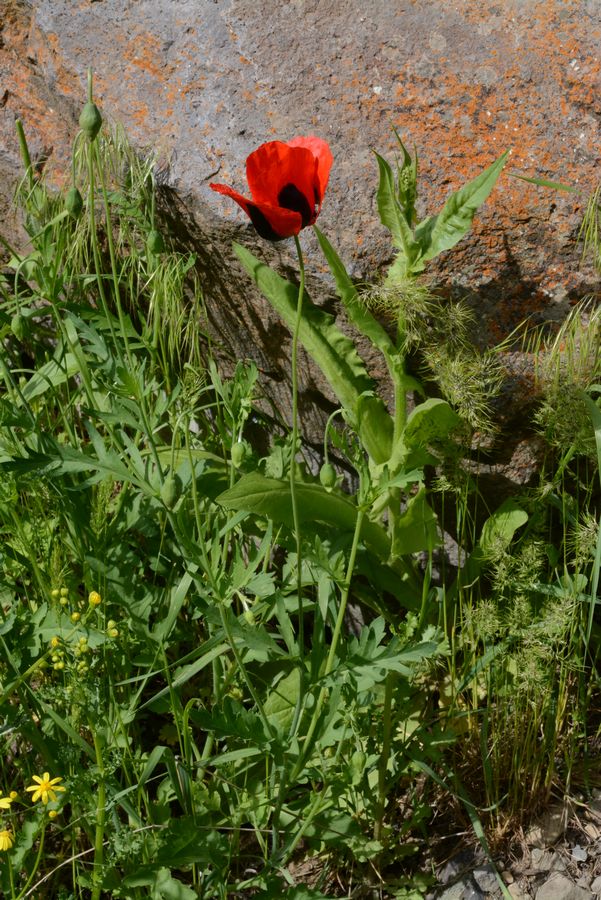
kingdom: Plantae
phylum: Tracheophyta
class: Magnoliopsida
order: Ranunculales
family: Papaveraceae
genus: Papaver
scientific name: Papaver rhoeas
